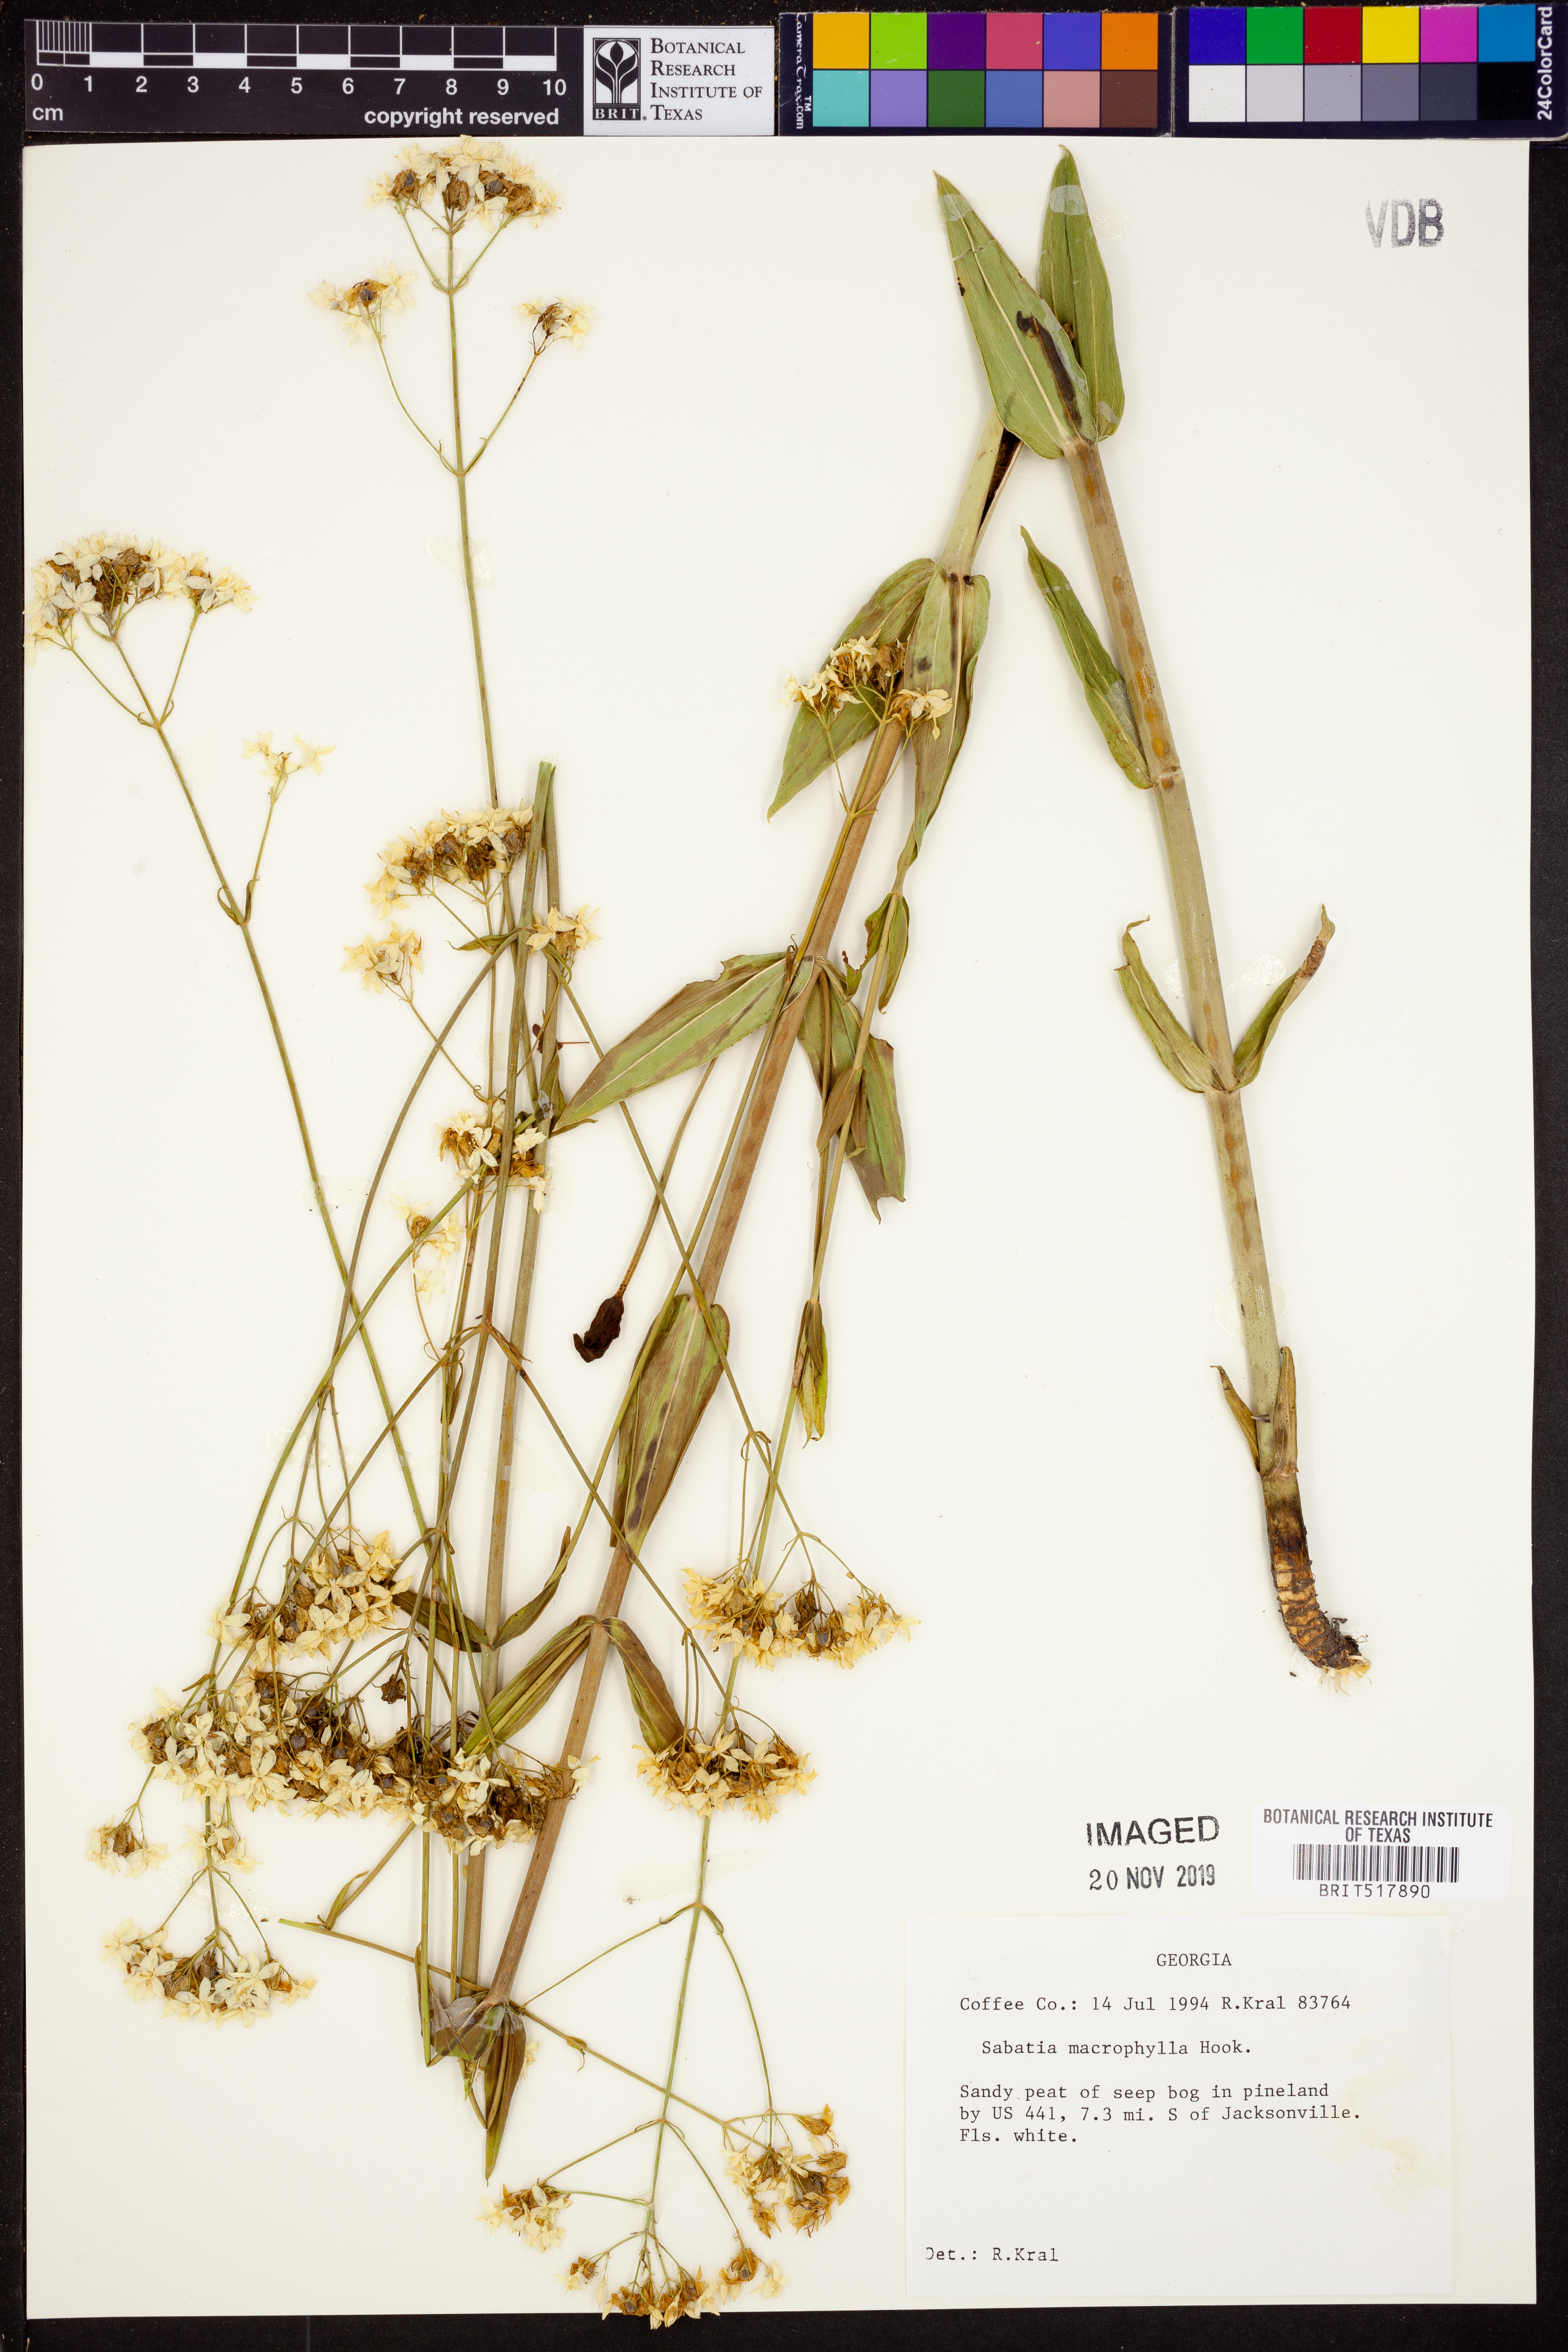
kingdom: Plantae
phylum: Tracheophyta
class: Magnoliopsida
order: Gentianales
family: Gentianaceae
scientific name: Gentianaceae
